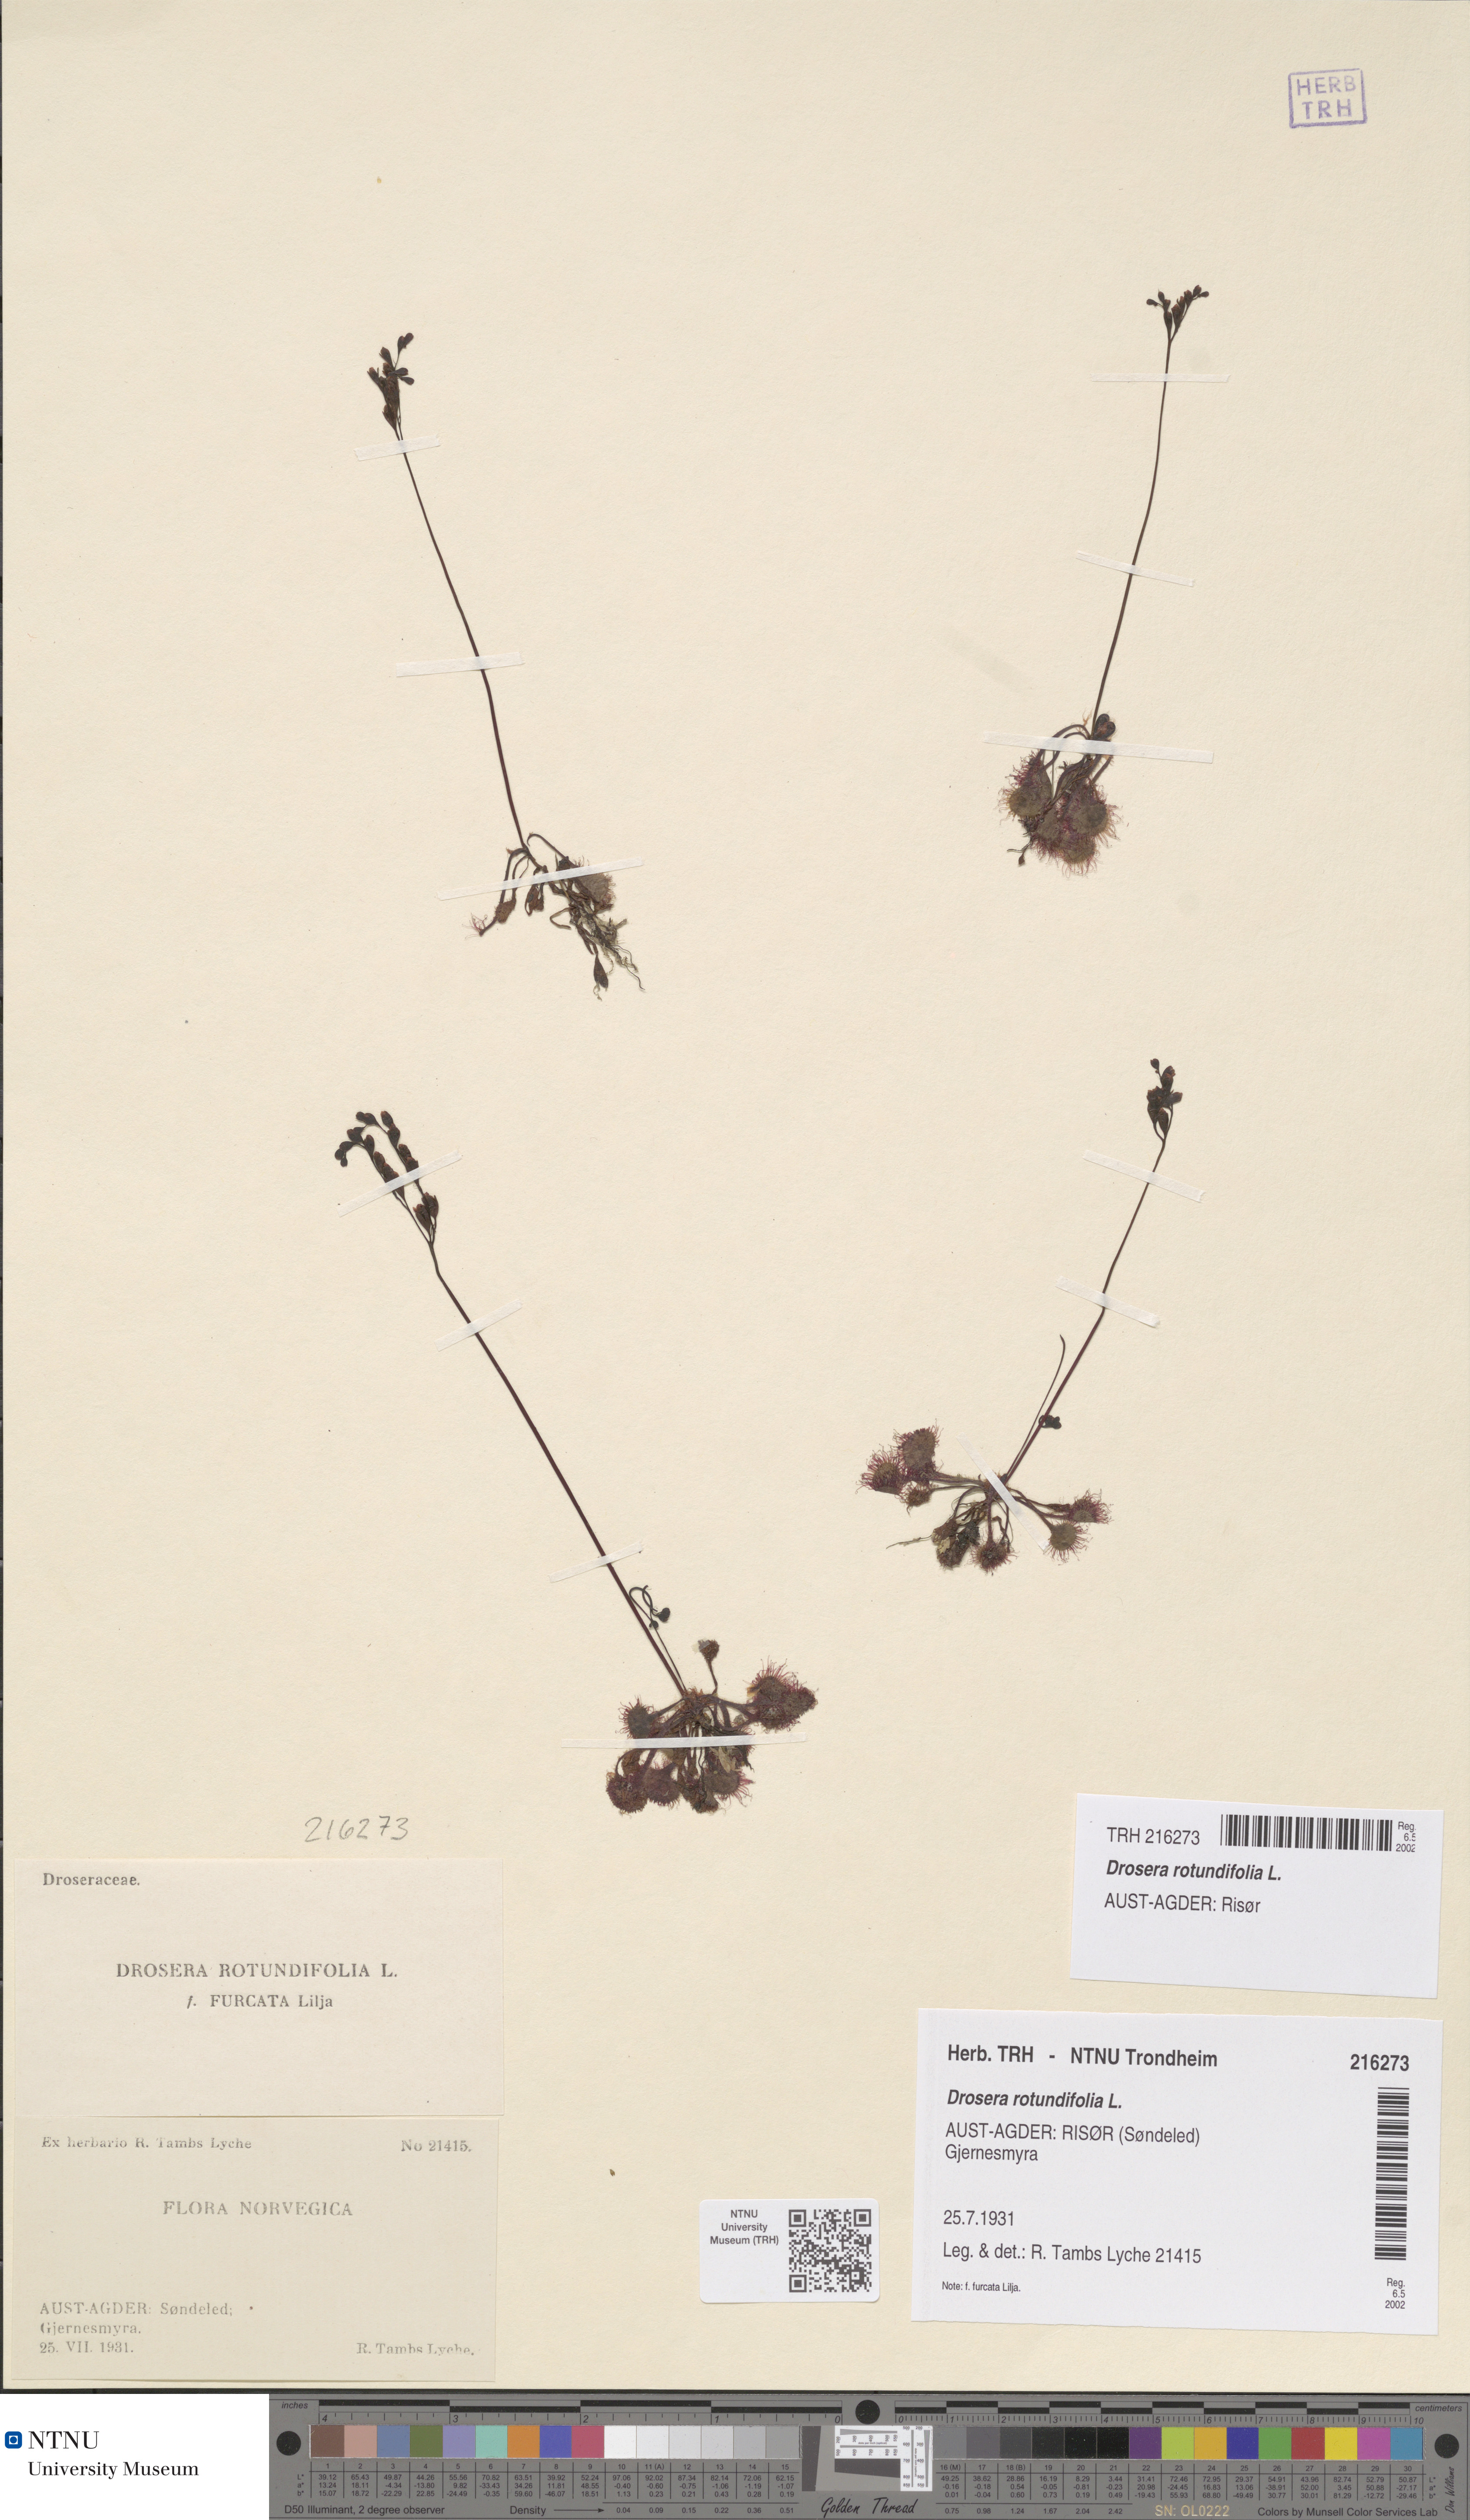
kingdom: Plantae
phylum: Tracheophyta
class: Magnoliopsida
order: Caryophyllales
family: Droseraceae
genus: Drosera
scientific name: Drosera rotundifolia
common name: Round-leaved sundew
